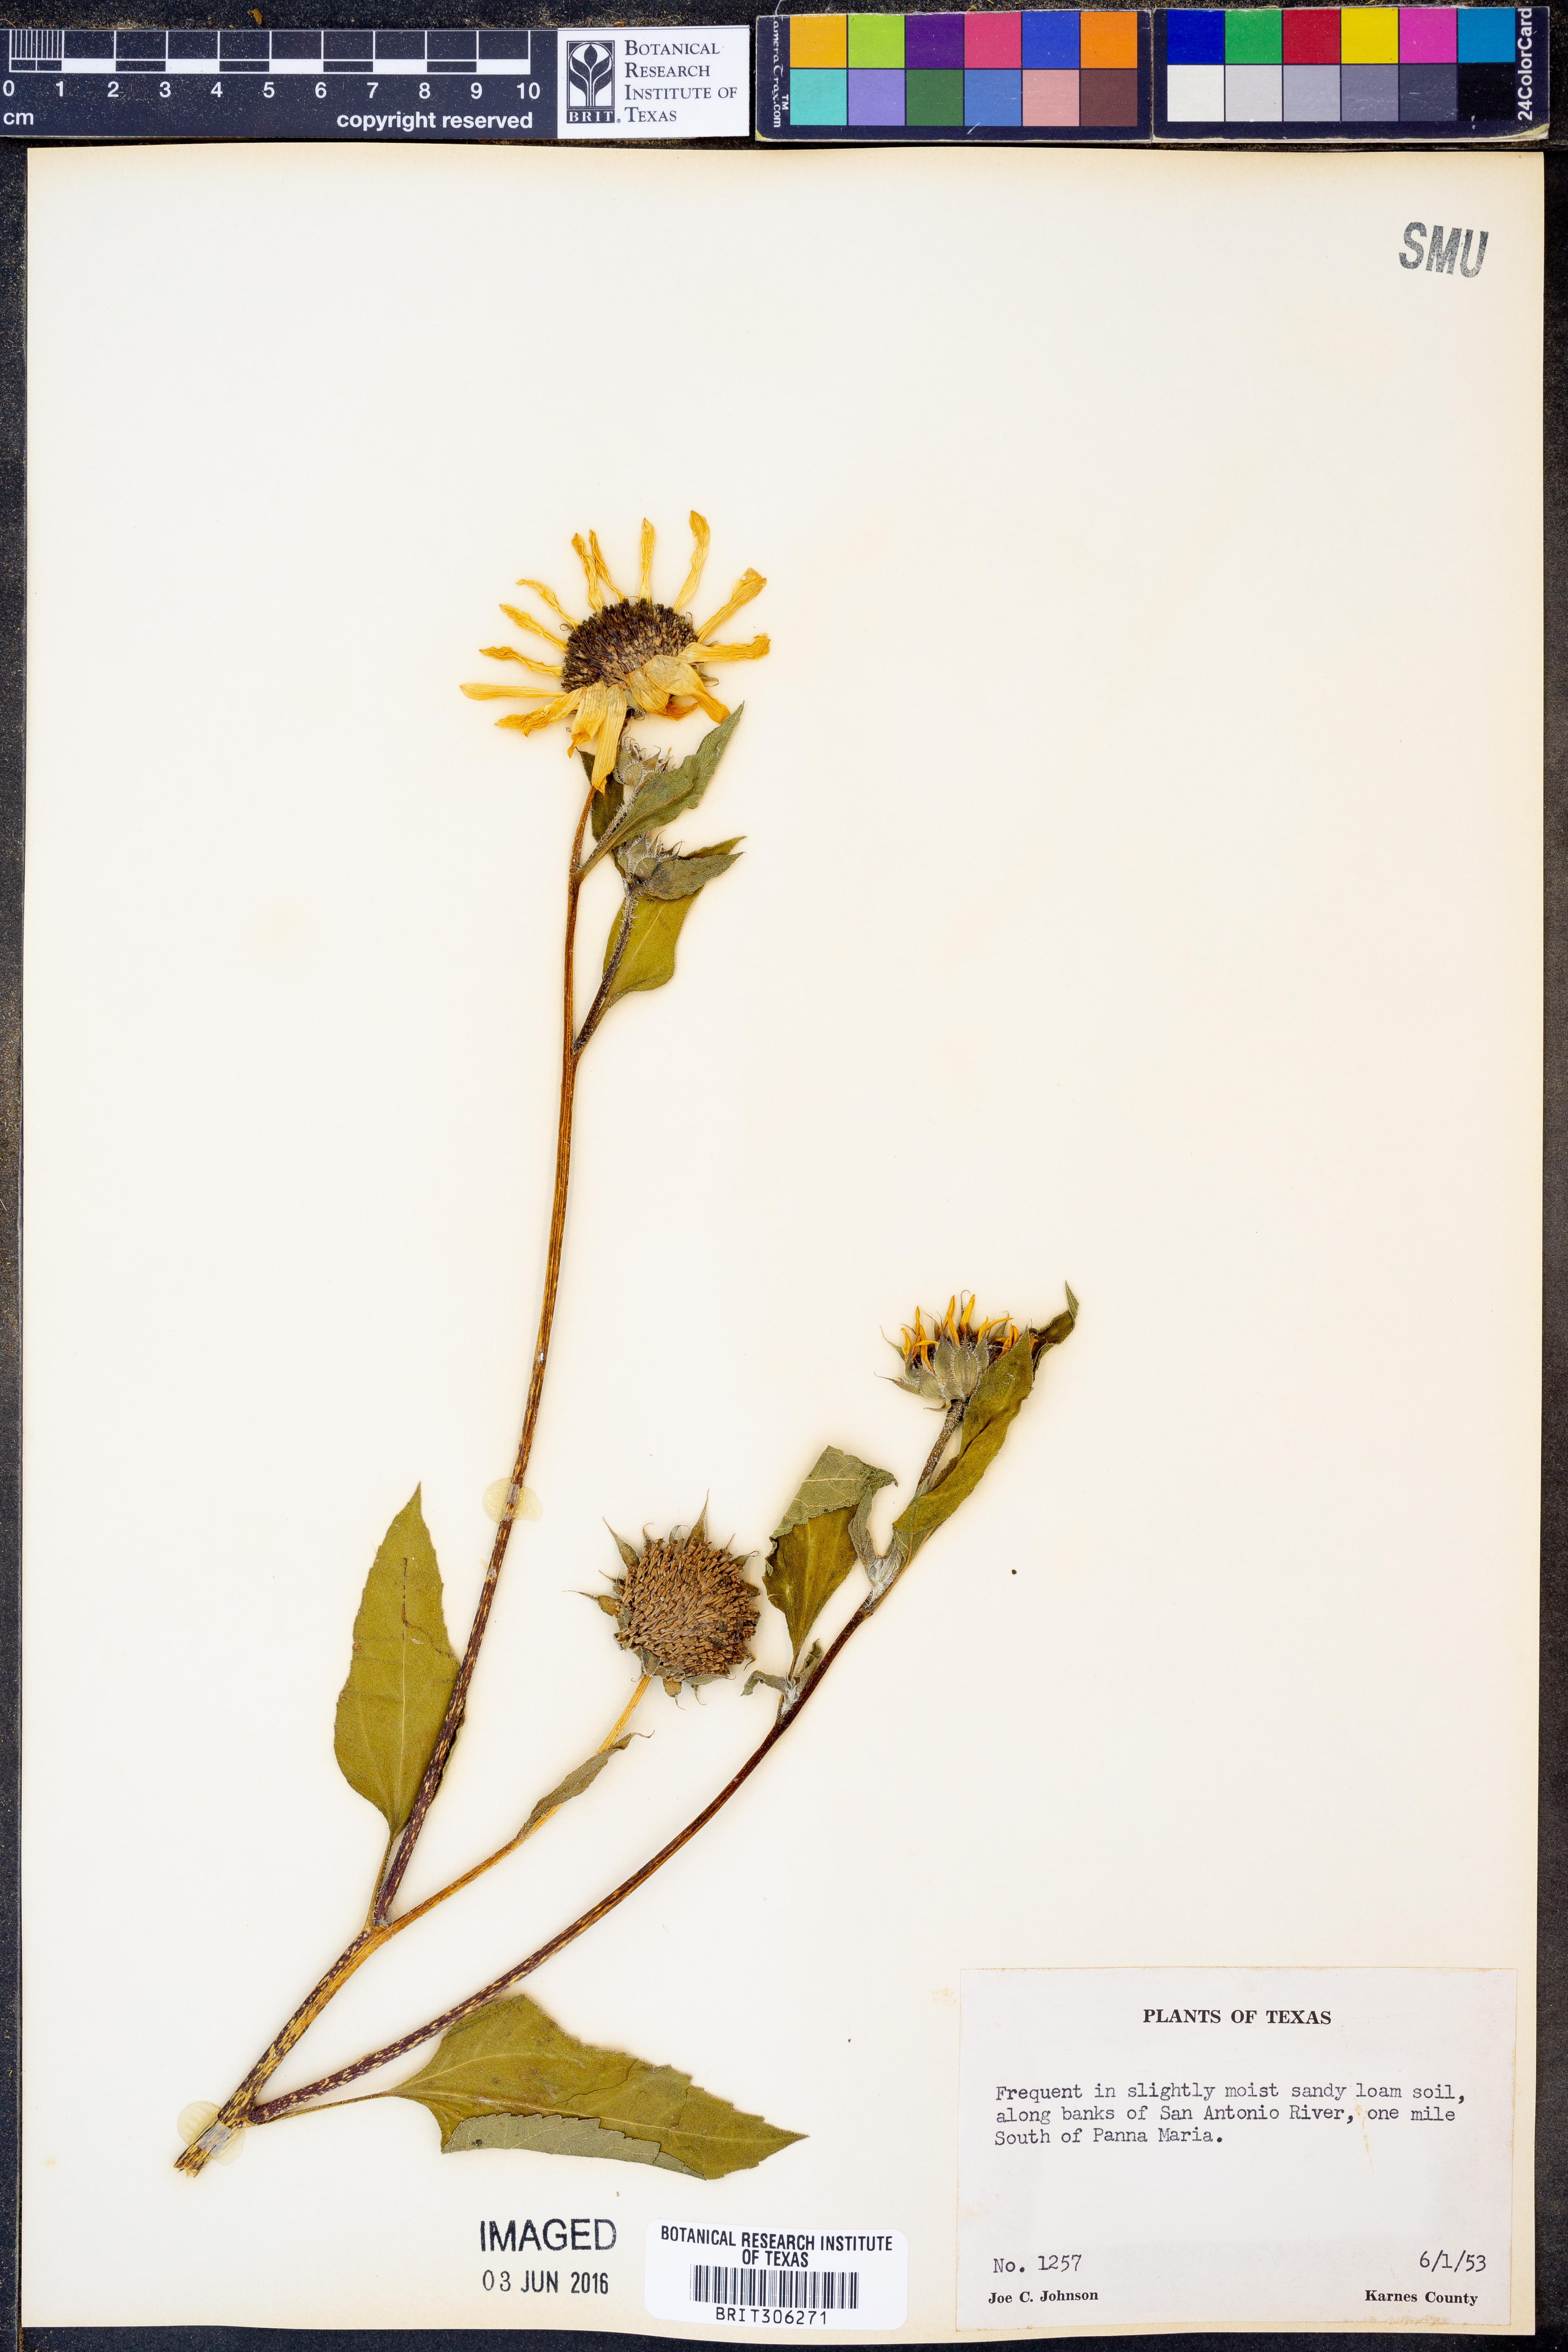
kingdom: Plantae
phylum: Tracheophyta
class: Magnoliopsida
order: Asterales
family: Asteraceae
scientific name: Asteraceae
